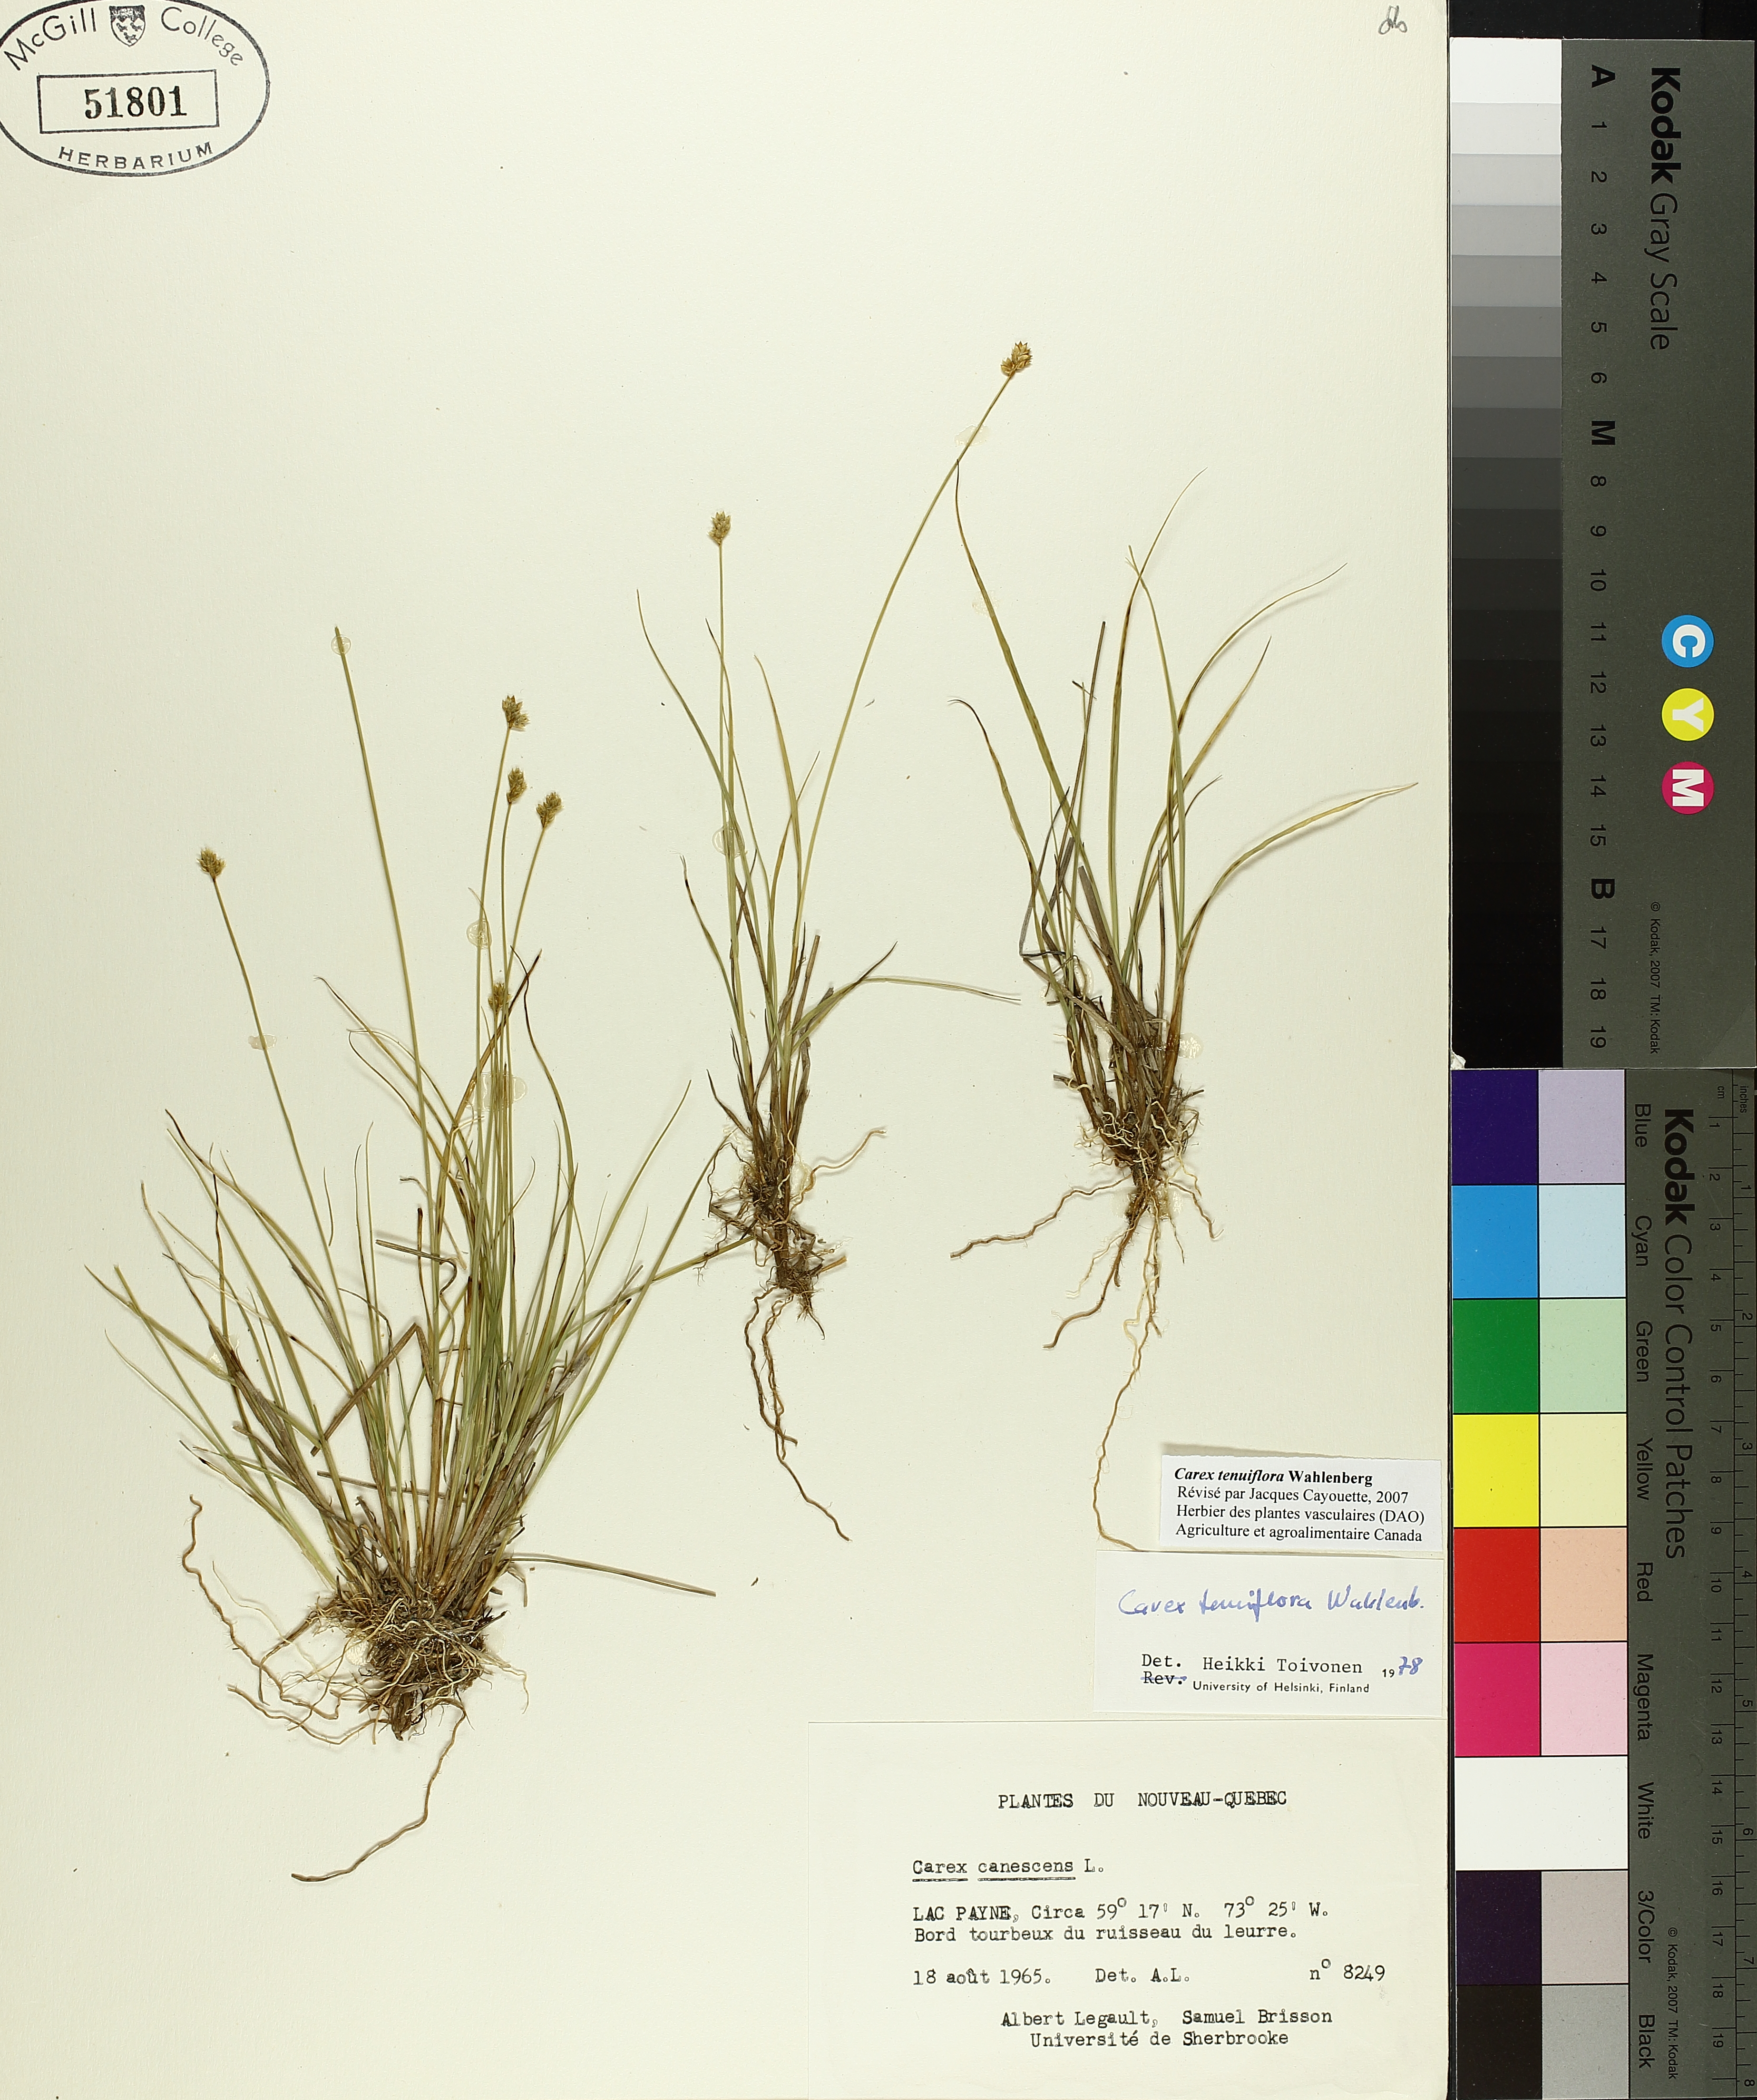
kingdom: Plantae
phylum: Tracheophyta
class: Liliopsida
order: Poales
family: Cyperaceae
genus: Carex
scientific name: Carex tenuiflora
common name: Sparse-flowered sedge
